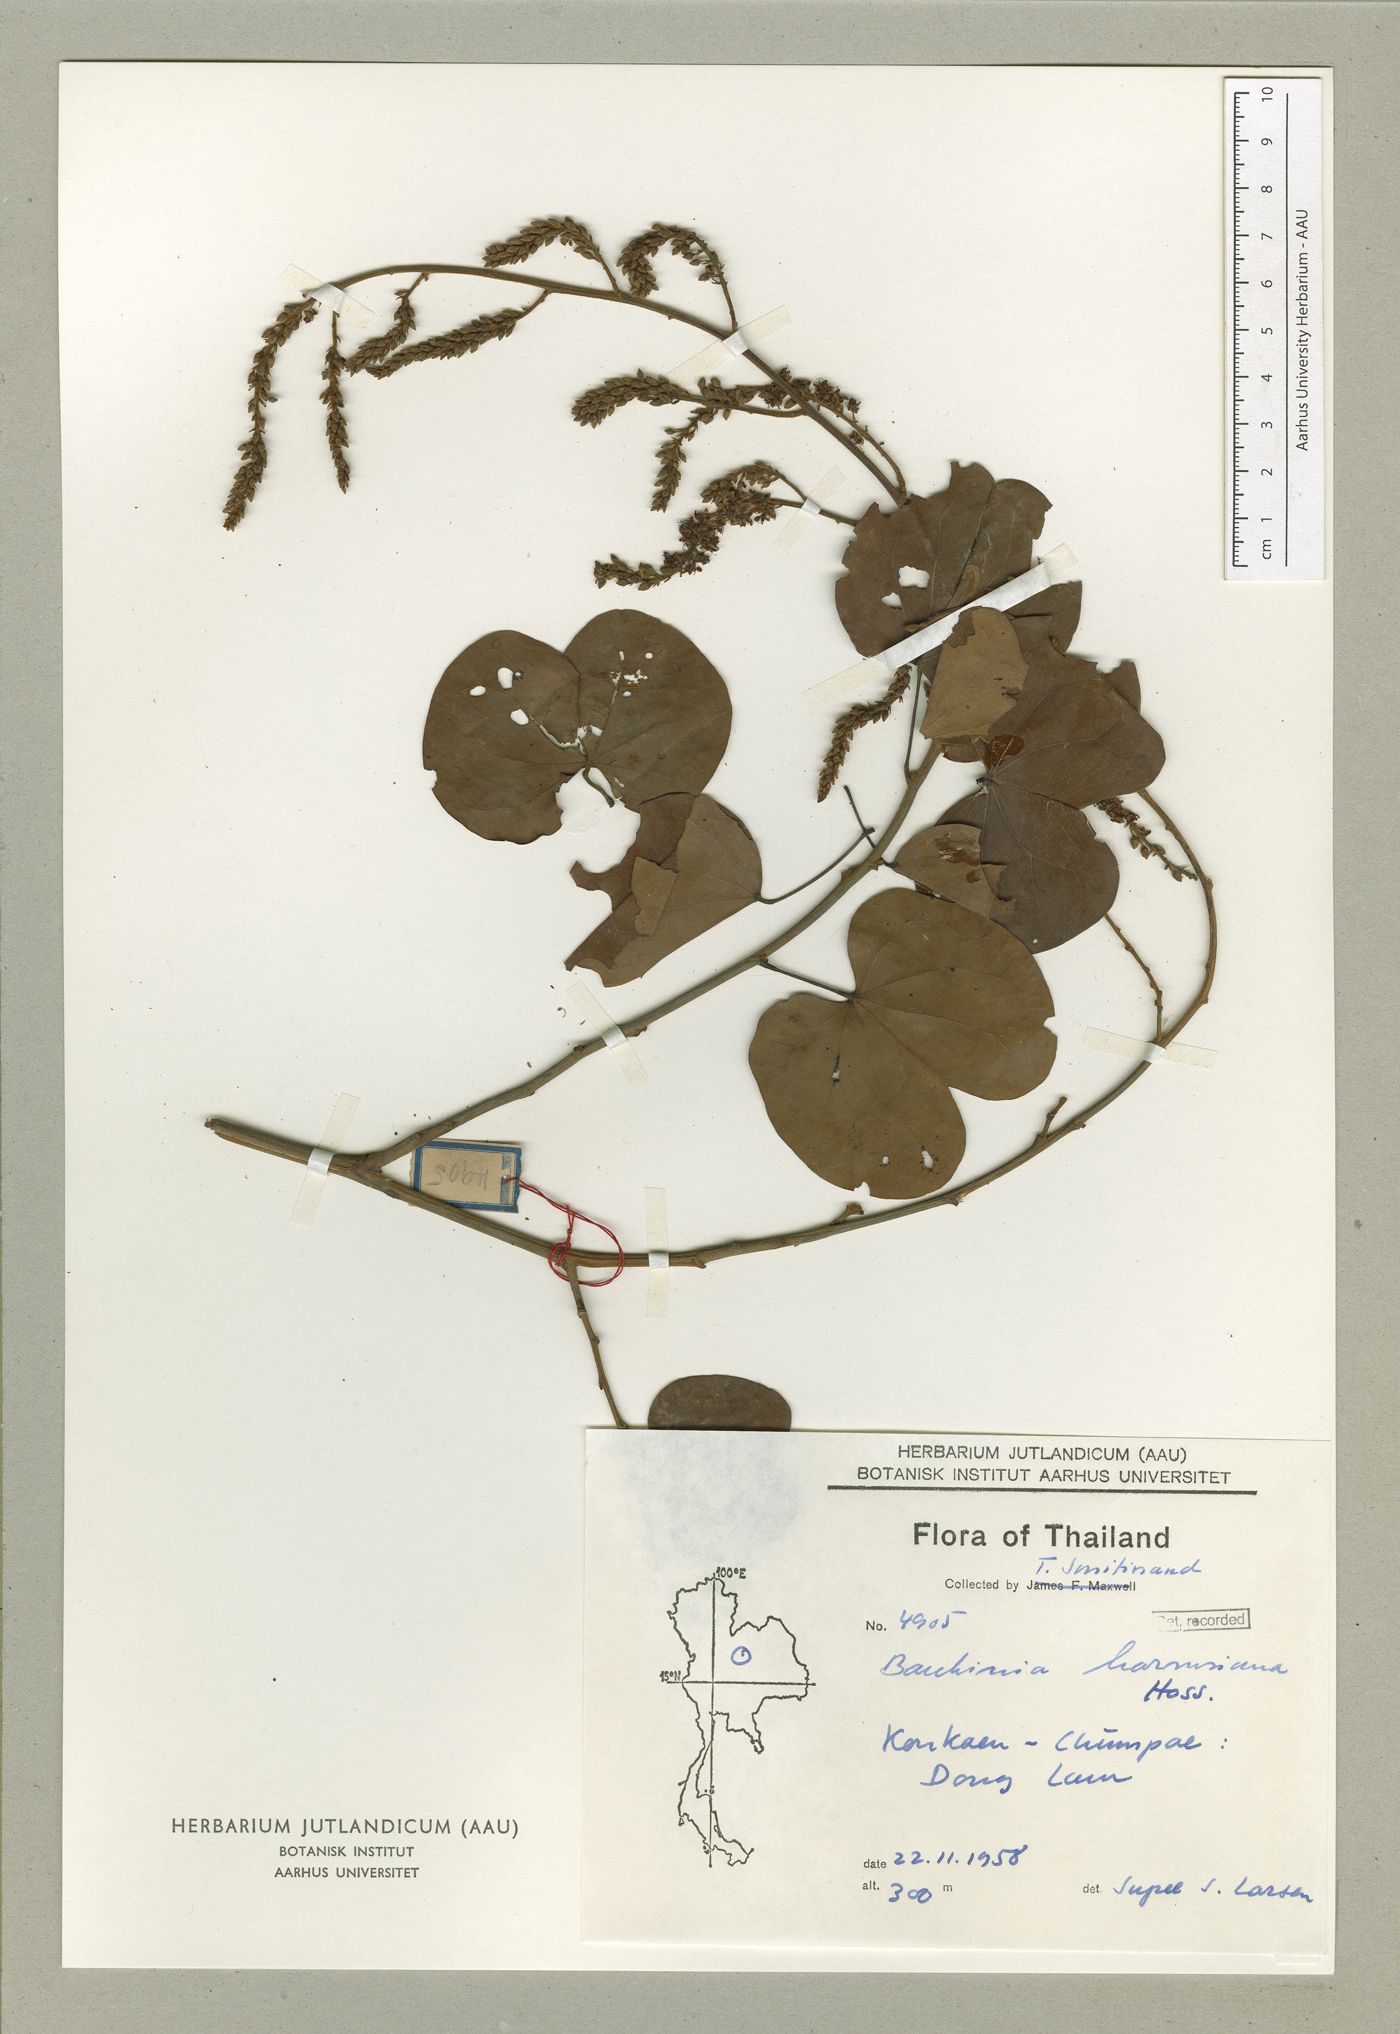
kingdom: Plantae
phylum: Tracheophyta
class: Magnoliopsida
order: Fabales
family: Fabaceae
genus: Phanera
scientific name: Phanera harmsiana
